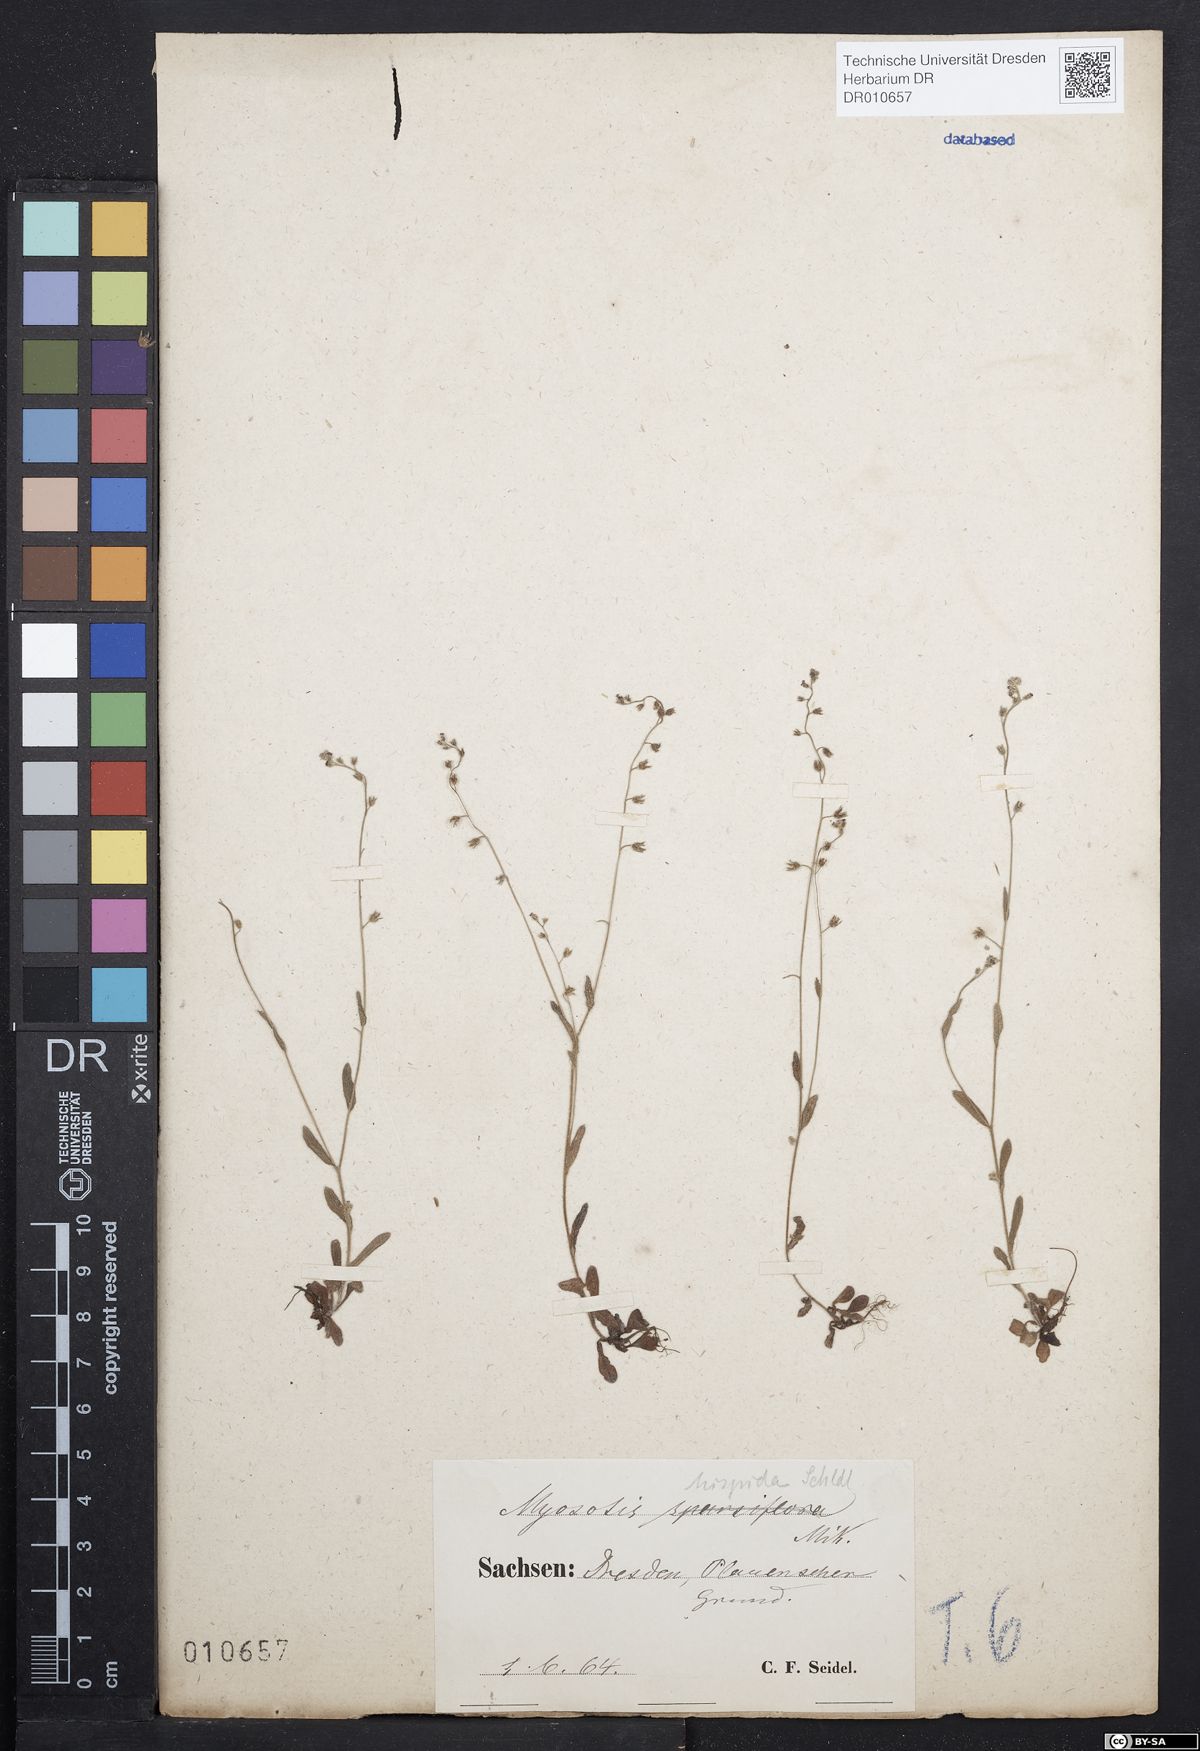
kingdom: Plantae
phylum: Tracheophyta
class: Magnoliopsida
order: Boraginales
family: Boraginaceae
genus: Myosotis
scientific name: Myosotis ramosissima
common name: Early forget-me-not
